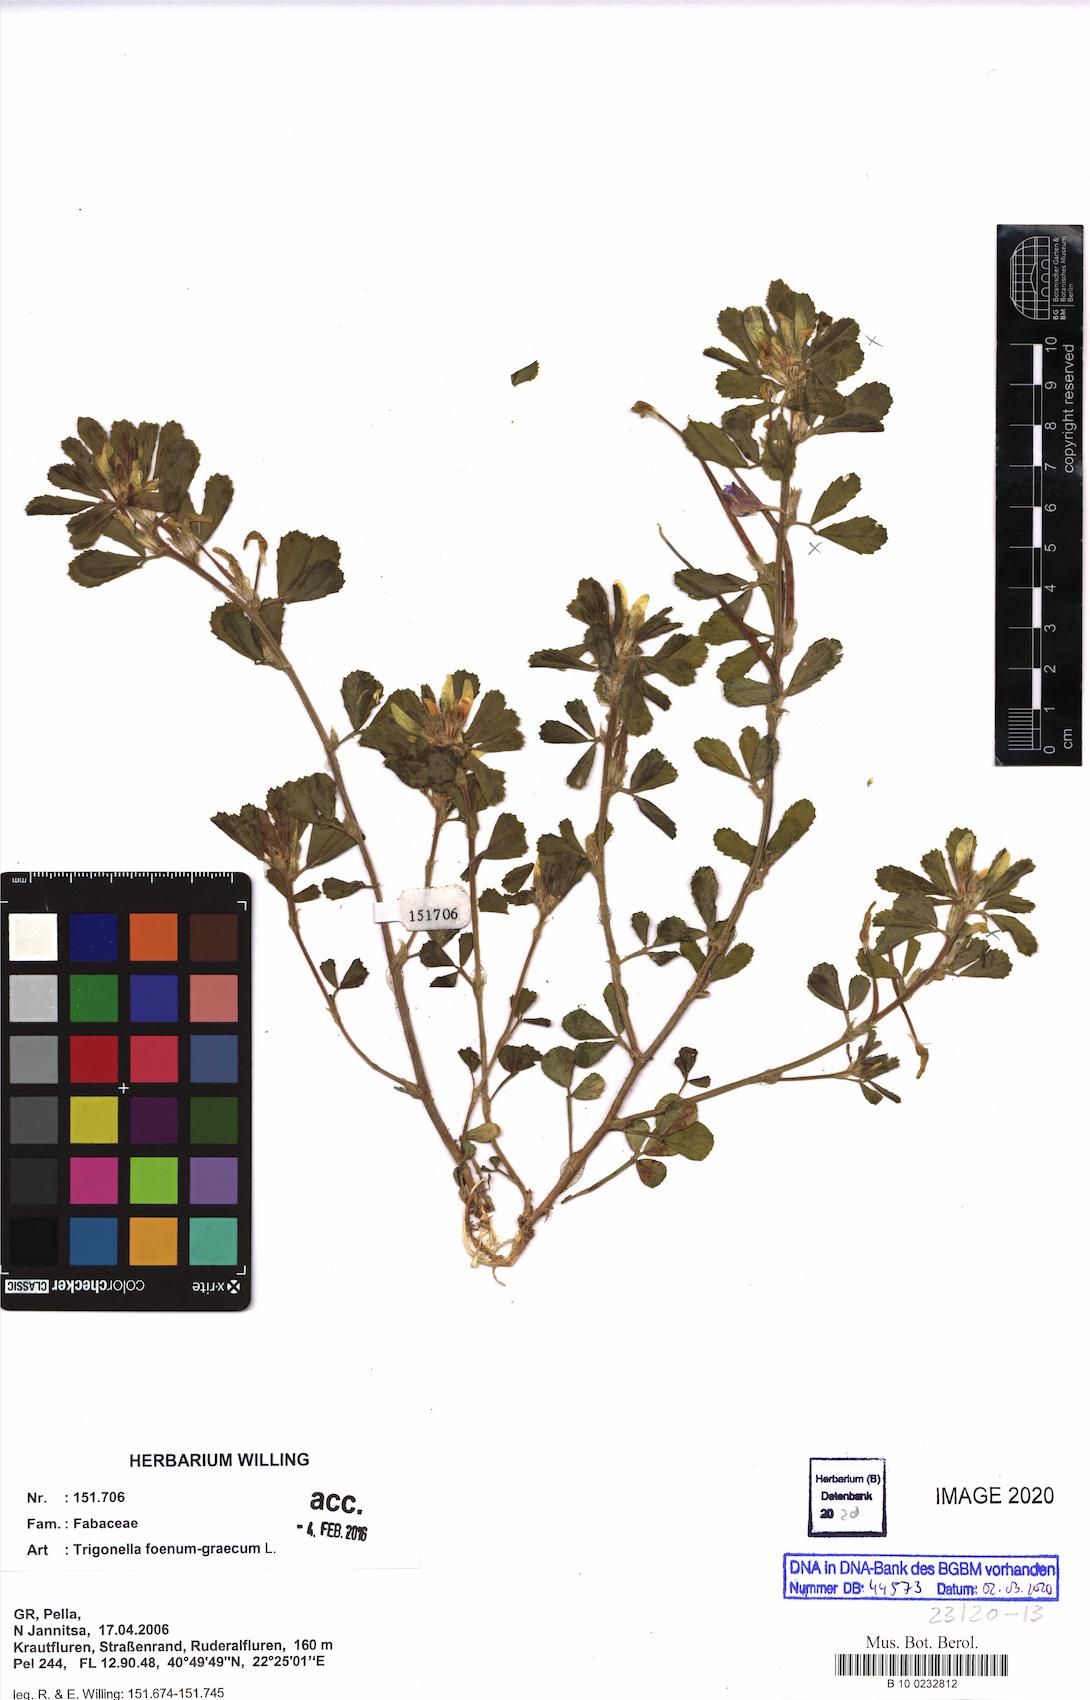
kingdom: Plantae
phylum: Tracheophyta
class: Magnoliopsida
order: Fabales
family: Fabaceae
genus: Trigonella
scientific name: Trigonella foenum-graecum
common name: Fenugreek
